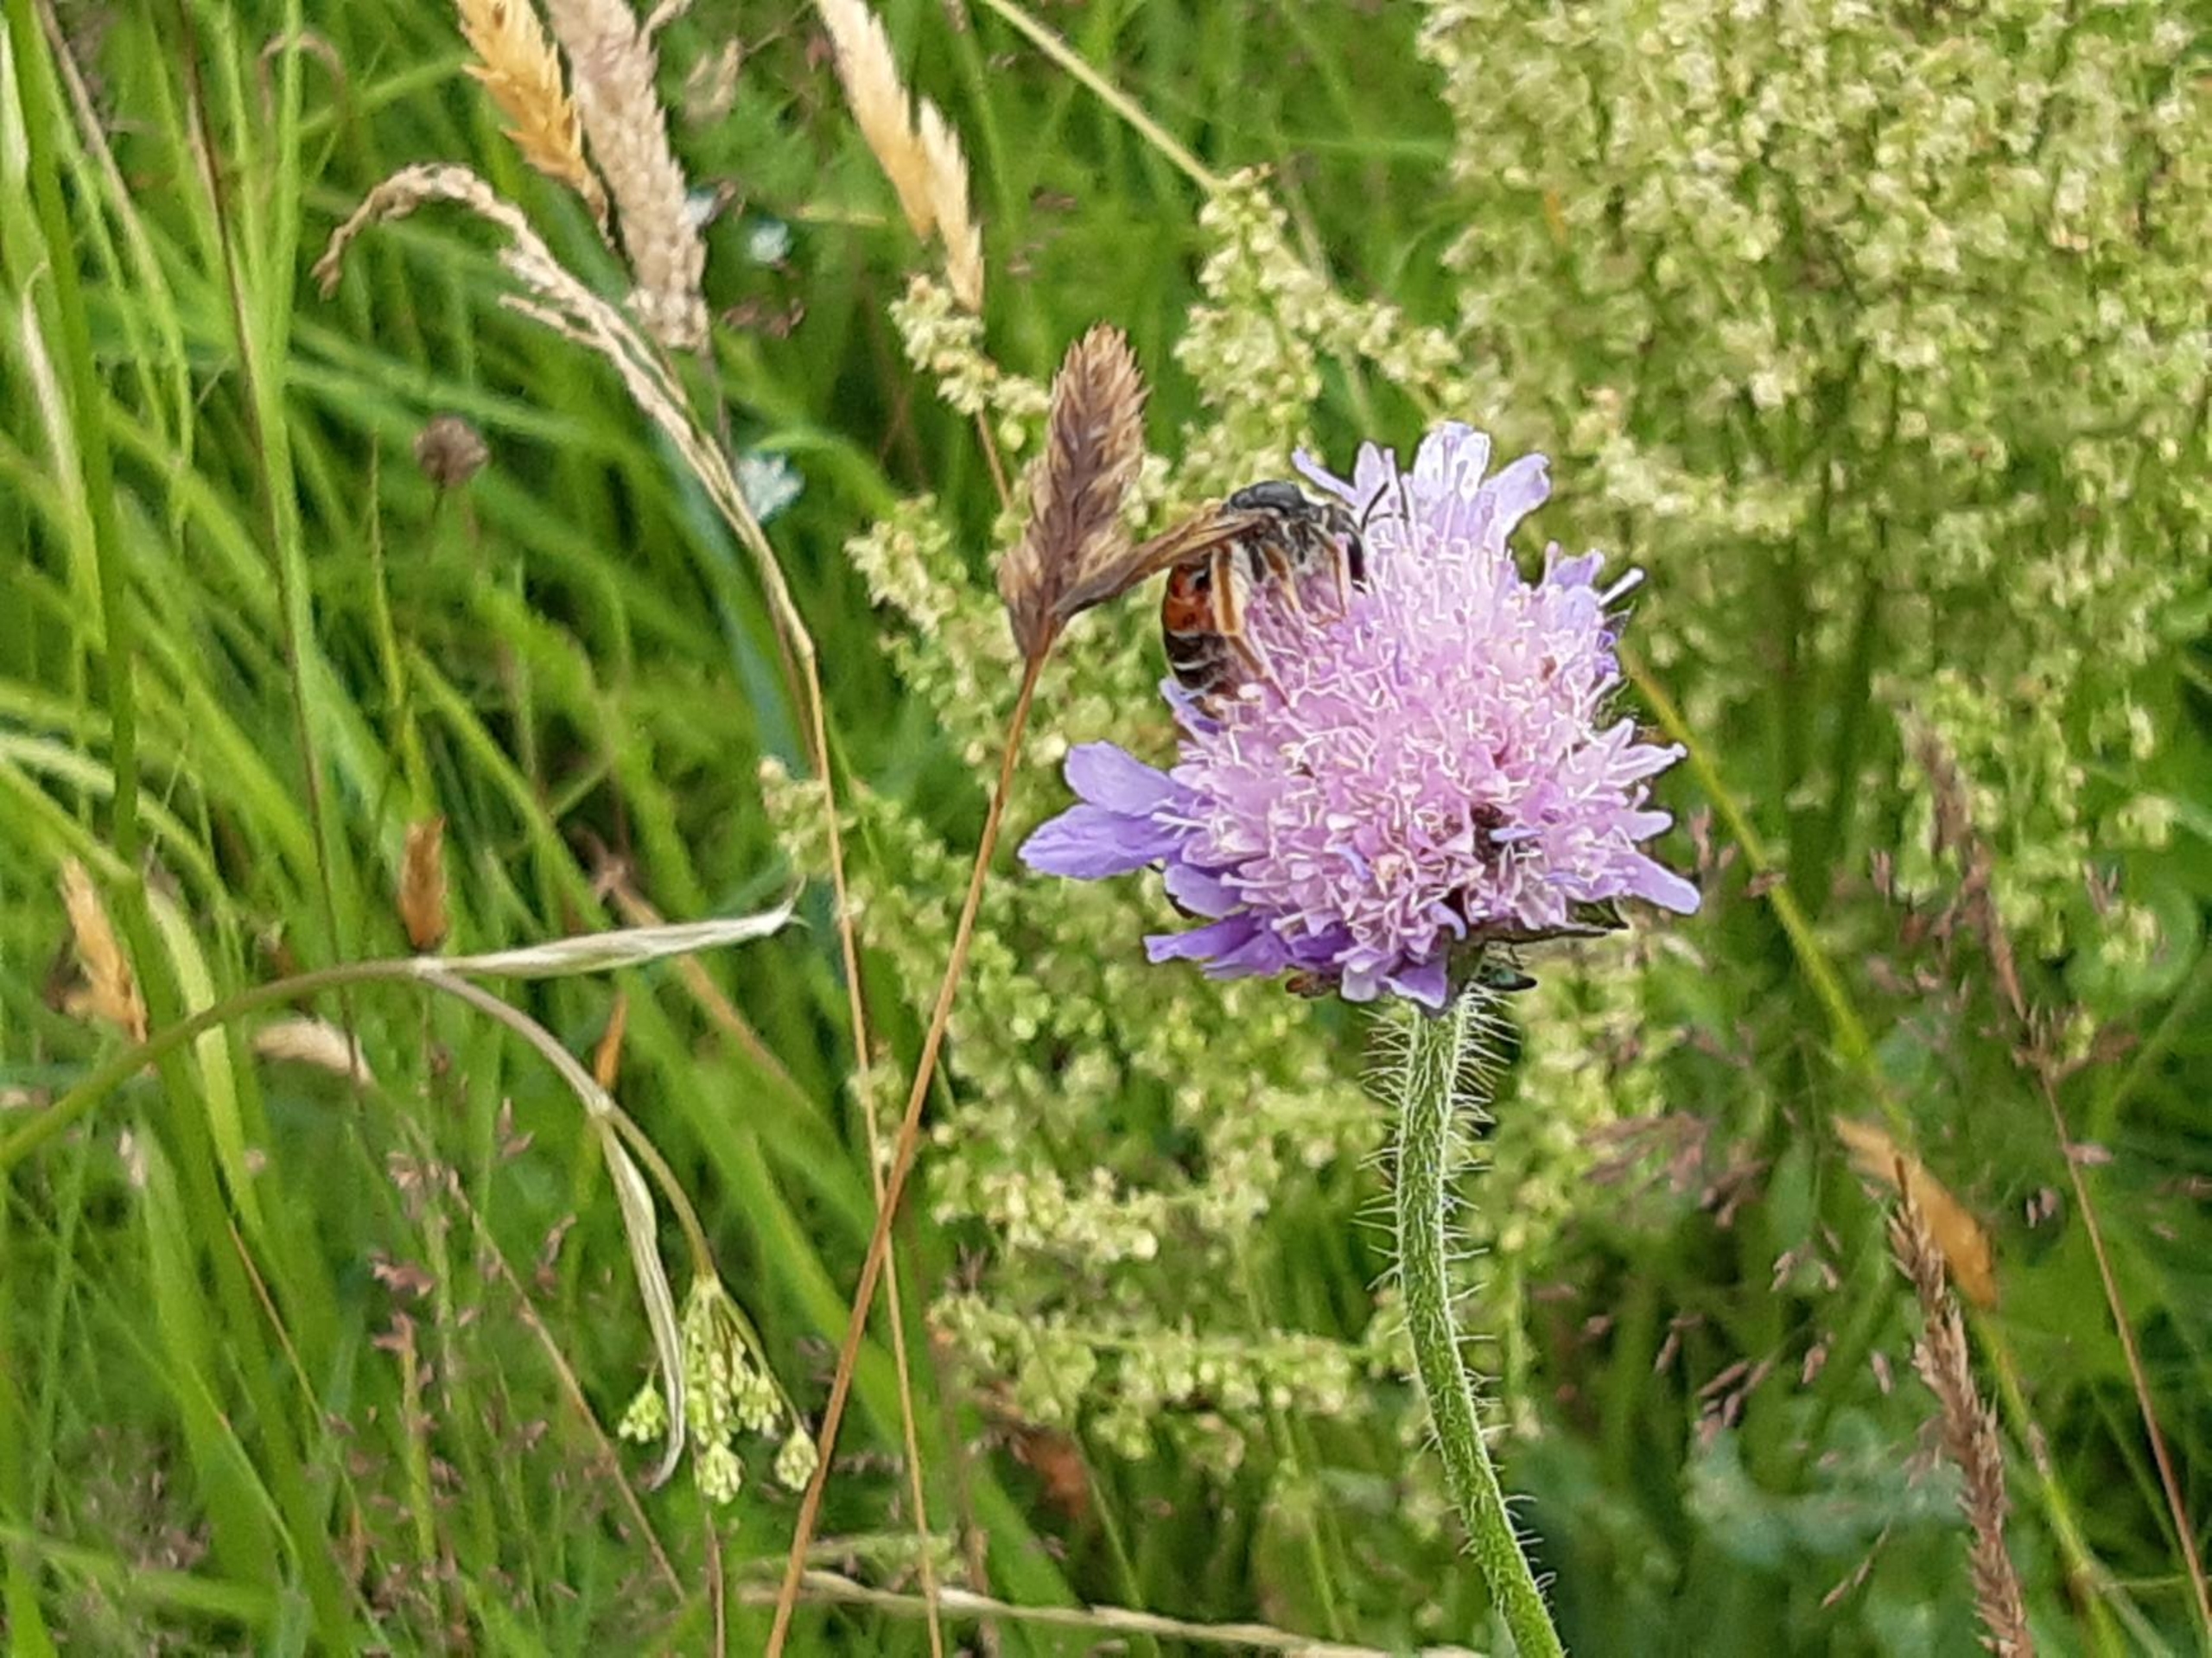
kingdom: Animalia
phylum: Arthropoda
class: Insecta
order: Hymenoptera
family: Andrenidae
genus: Andrena
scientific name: Andrena hattorfiana
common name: Blåhatjordbi
